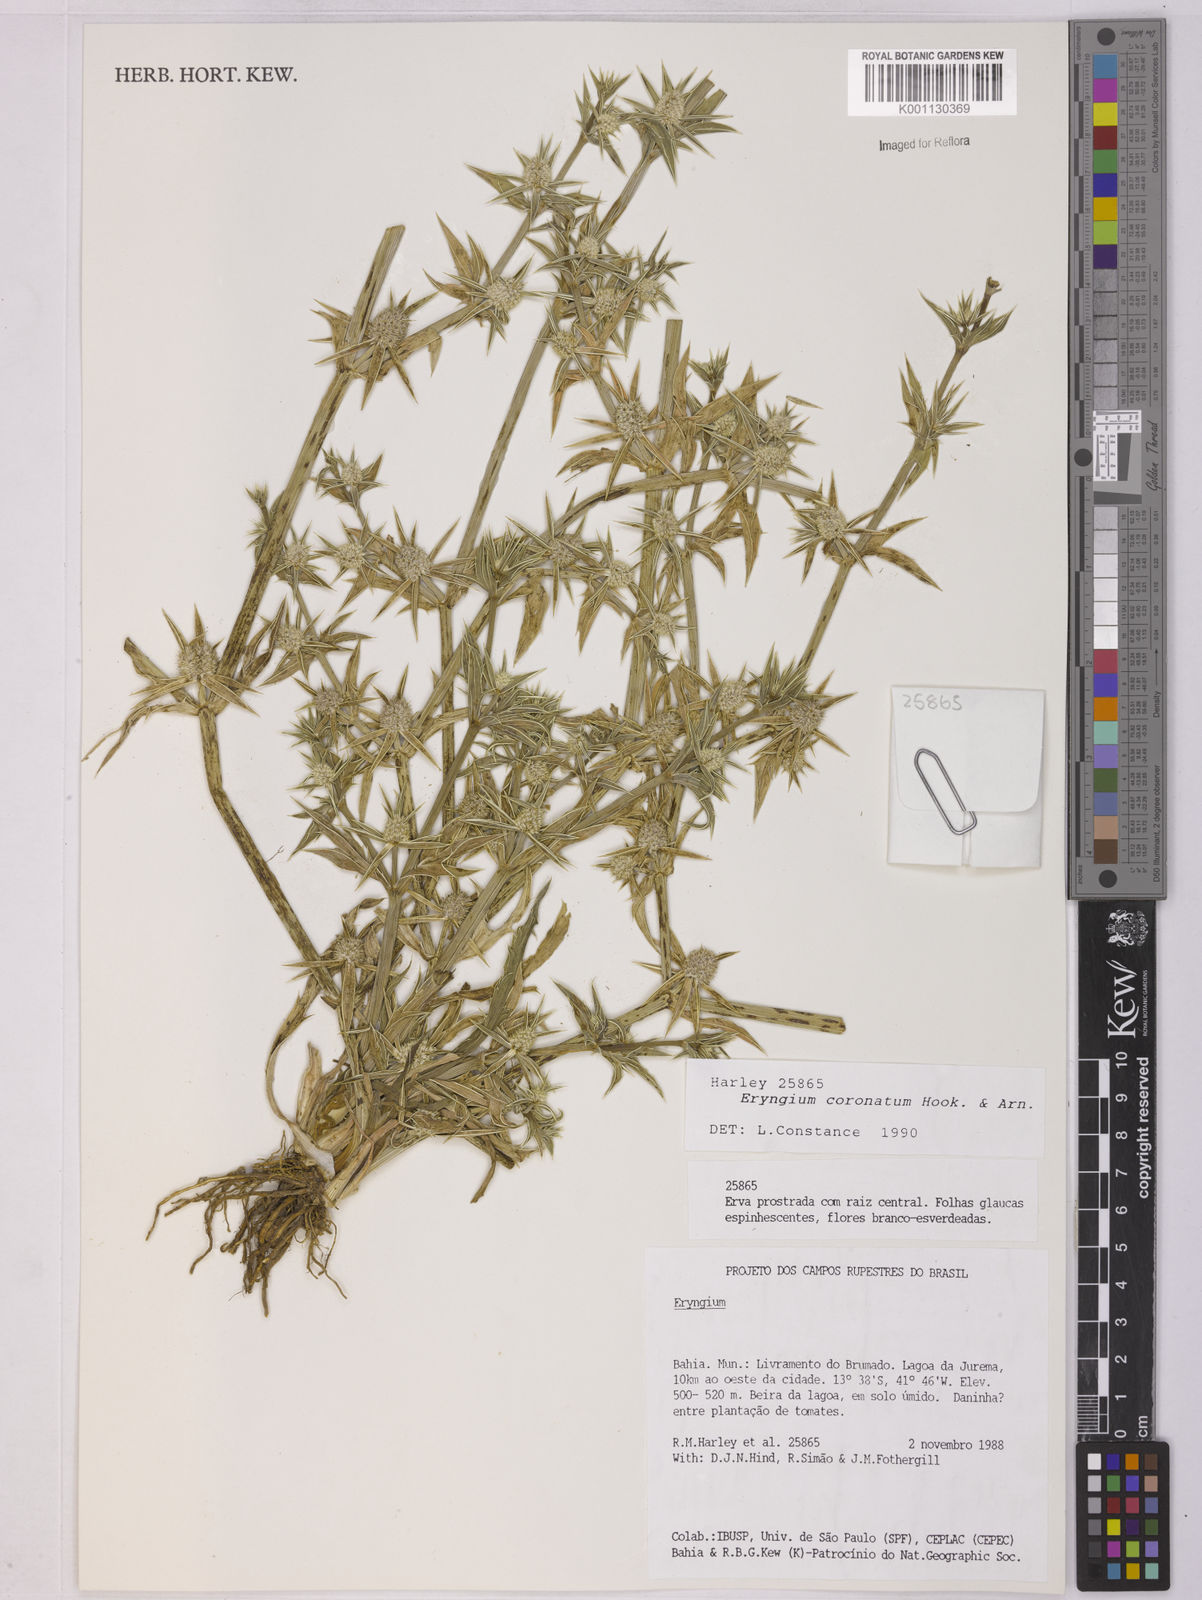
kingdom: Plantae
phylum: Tracheophyta
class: Magnoliopsida
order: Apiales
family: Apiaceae
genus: Eryngium
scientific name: Eryngium coronatum
